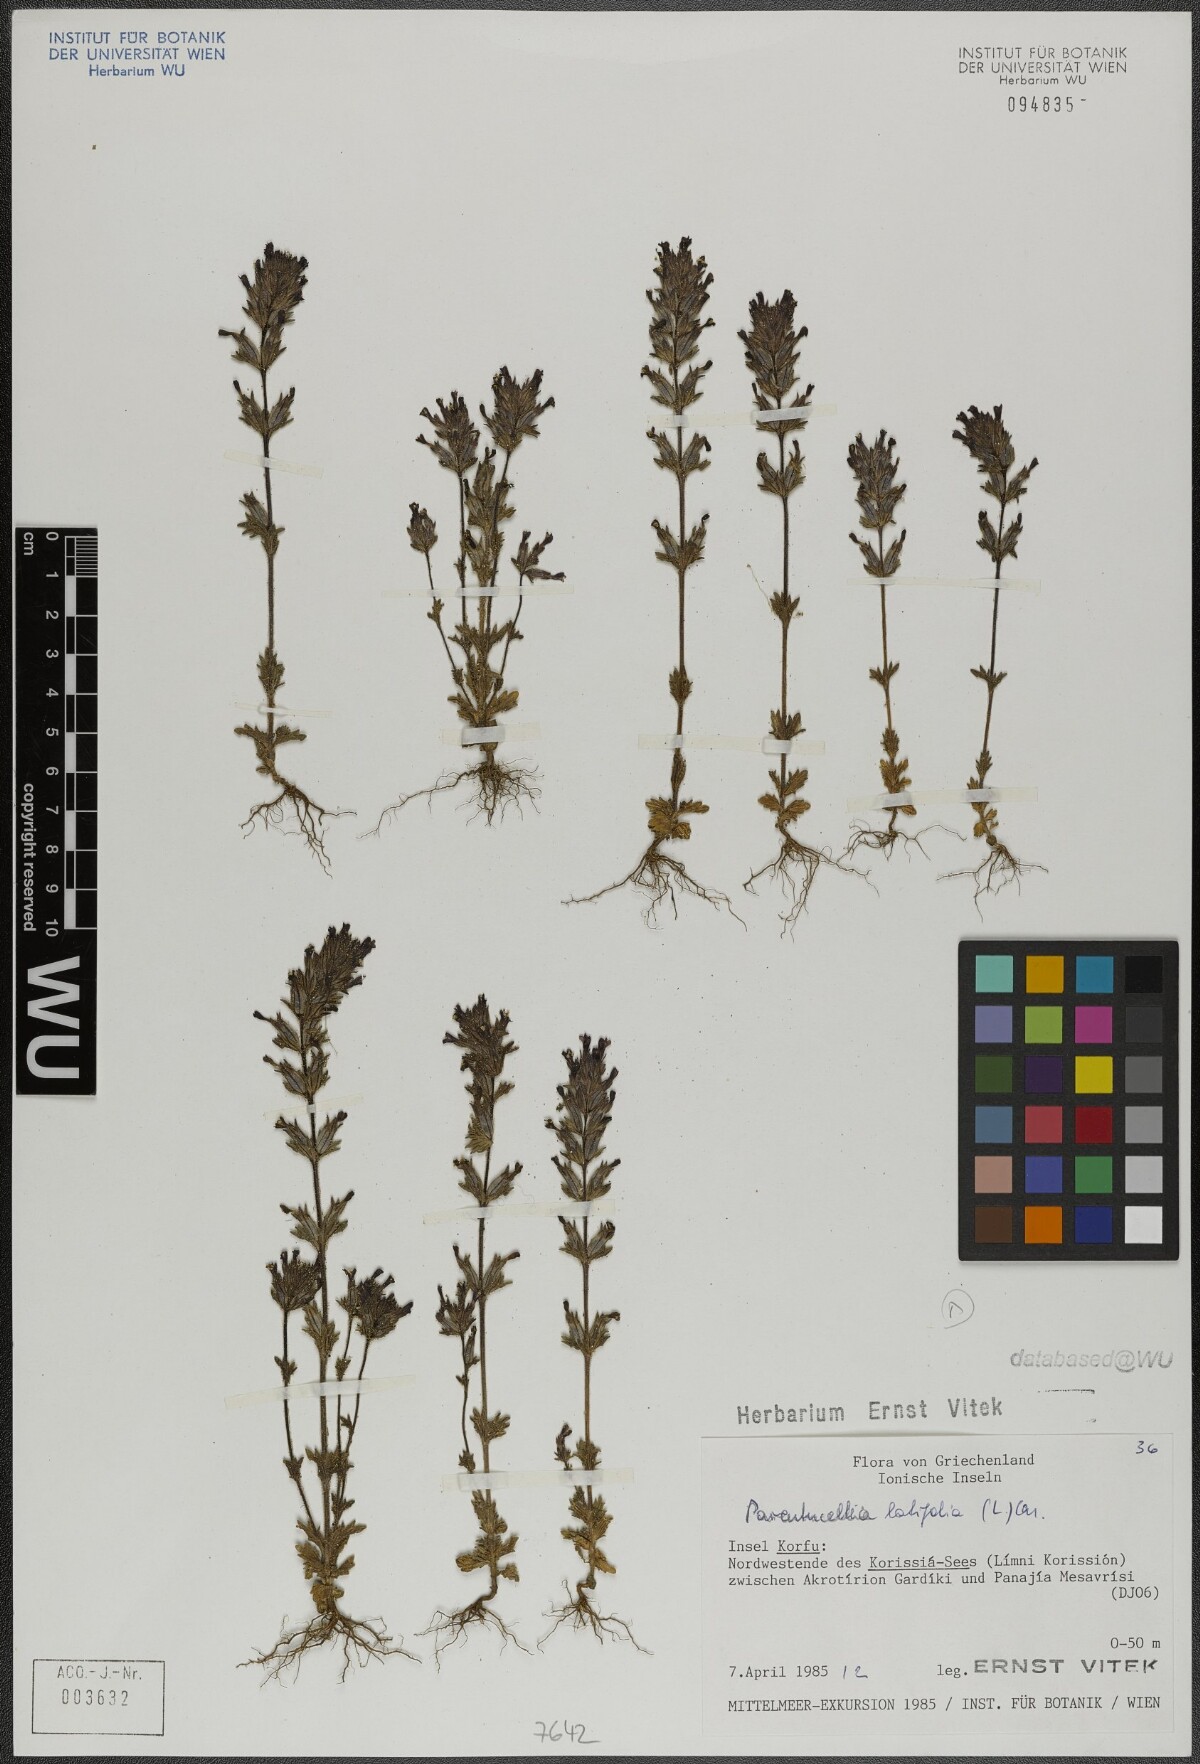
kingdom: Plantae
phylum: Tracheophyta
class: Magnoliopsida
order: Lamiales
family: Orobanchaceae
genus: Parentucellia
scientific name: Parentucellia latifolia
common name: Broadleaf glandweed
